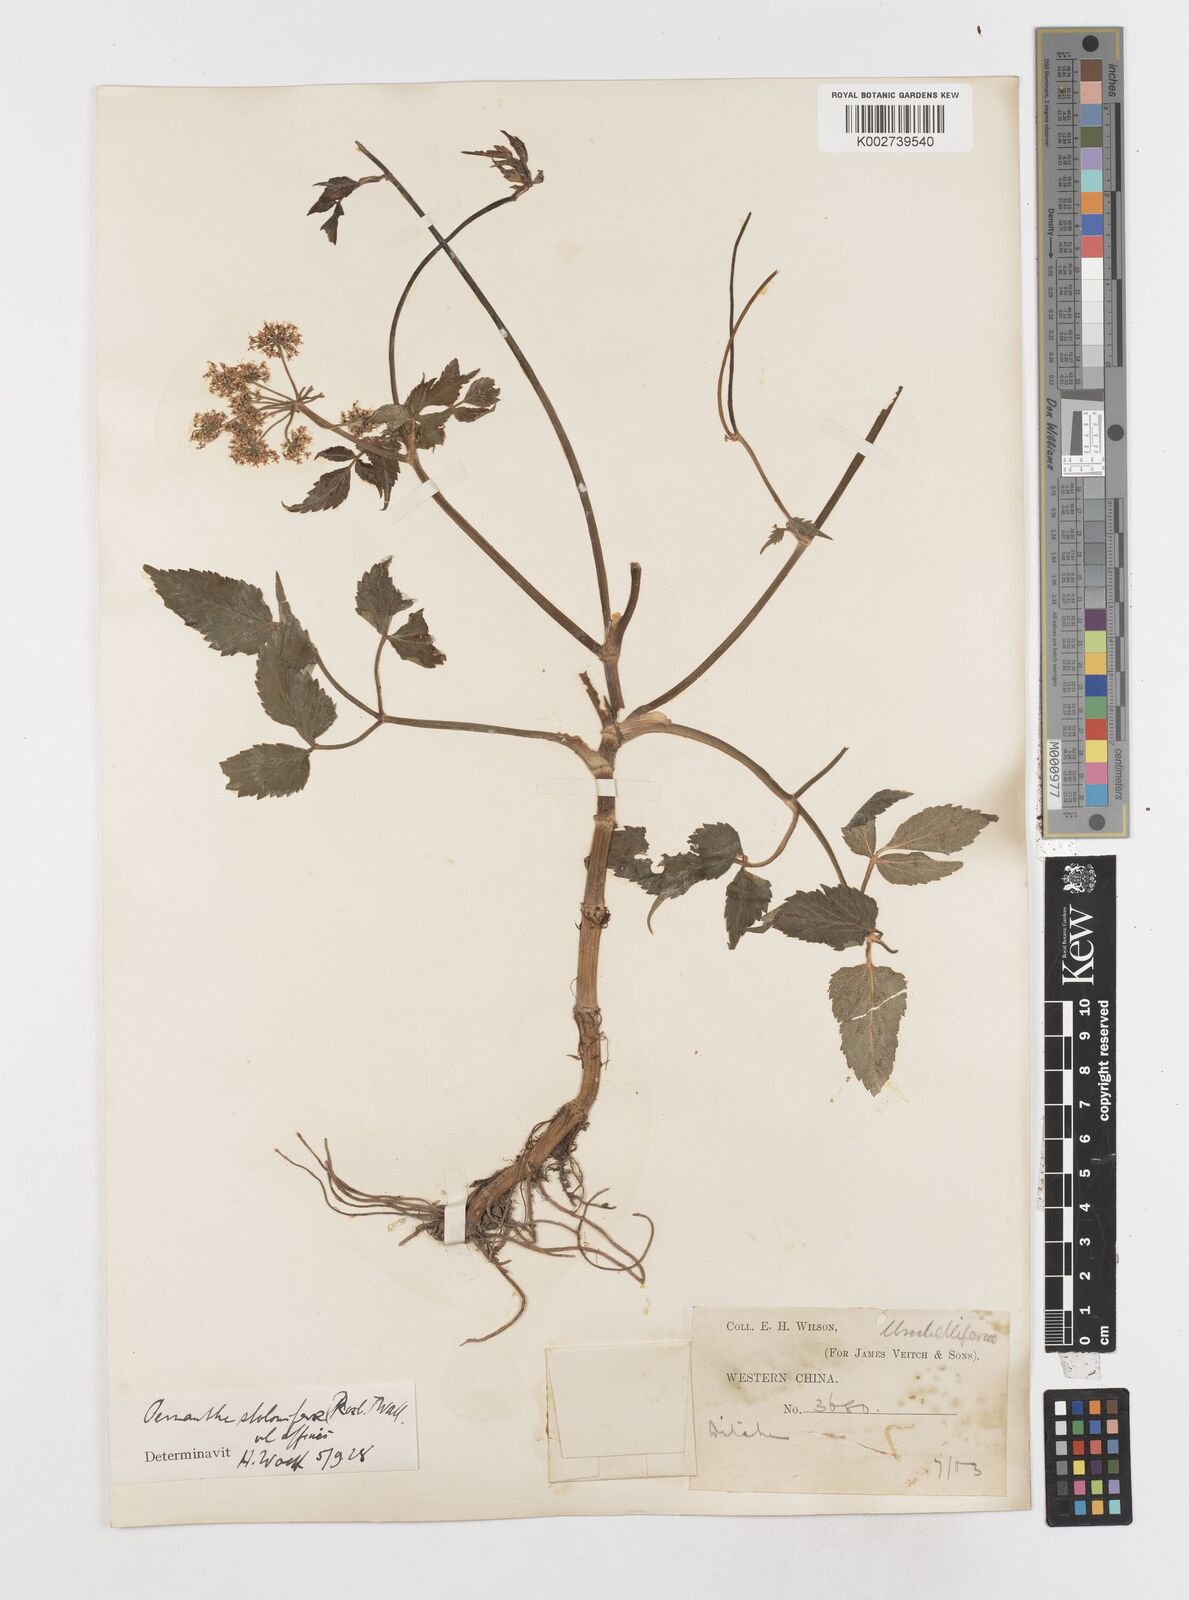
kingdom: Plantae
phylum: Tracheophyta
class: Magnoliopsida
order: Apiales
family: Apiaceae
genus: Oenanthe
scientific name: Oenanthe javanica
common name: Java water-dropwort
